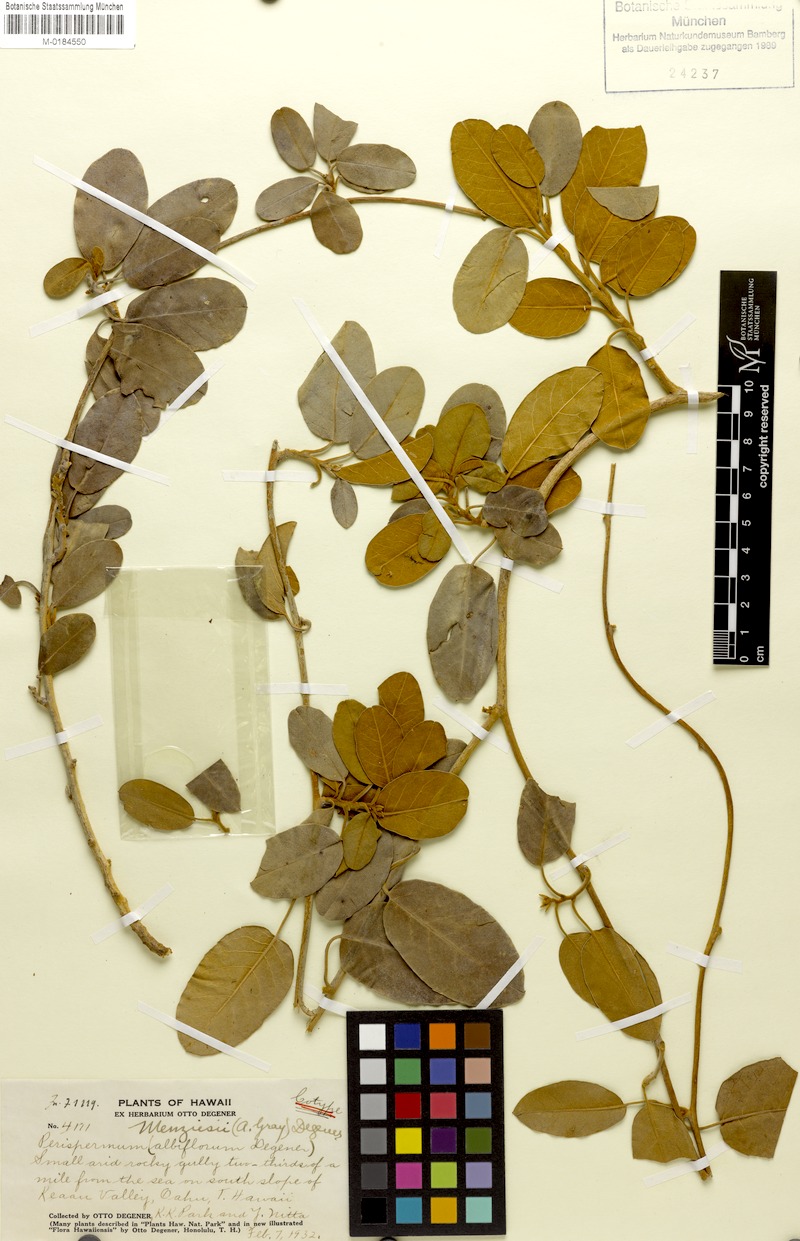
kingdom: Plantae
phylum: Tracheophyta
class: Magnoliopsida
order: Solanales
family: Convolvulaceae
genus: Bonamia
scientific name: Bonamia menziesii
